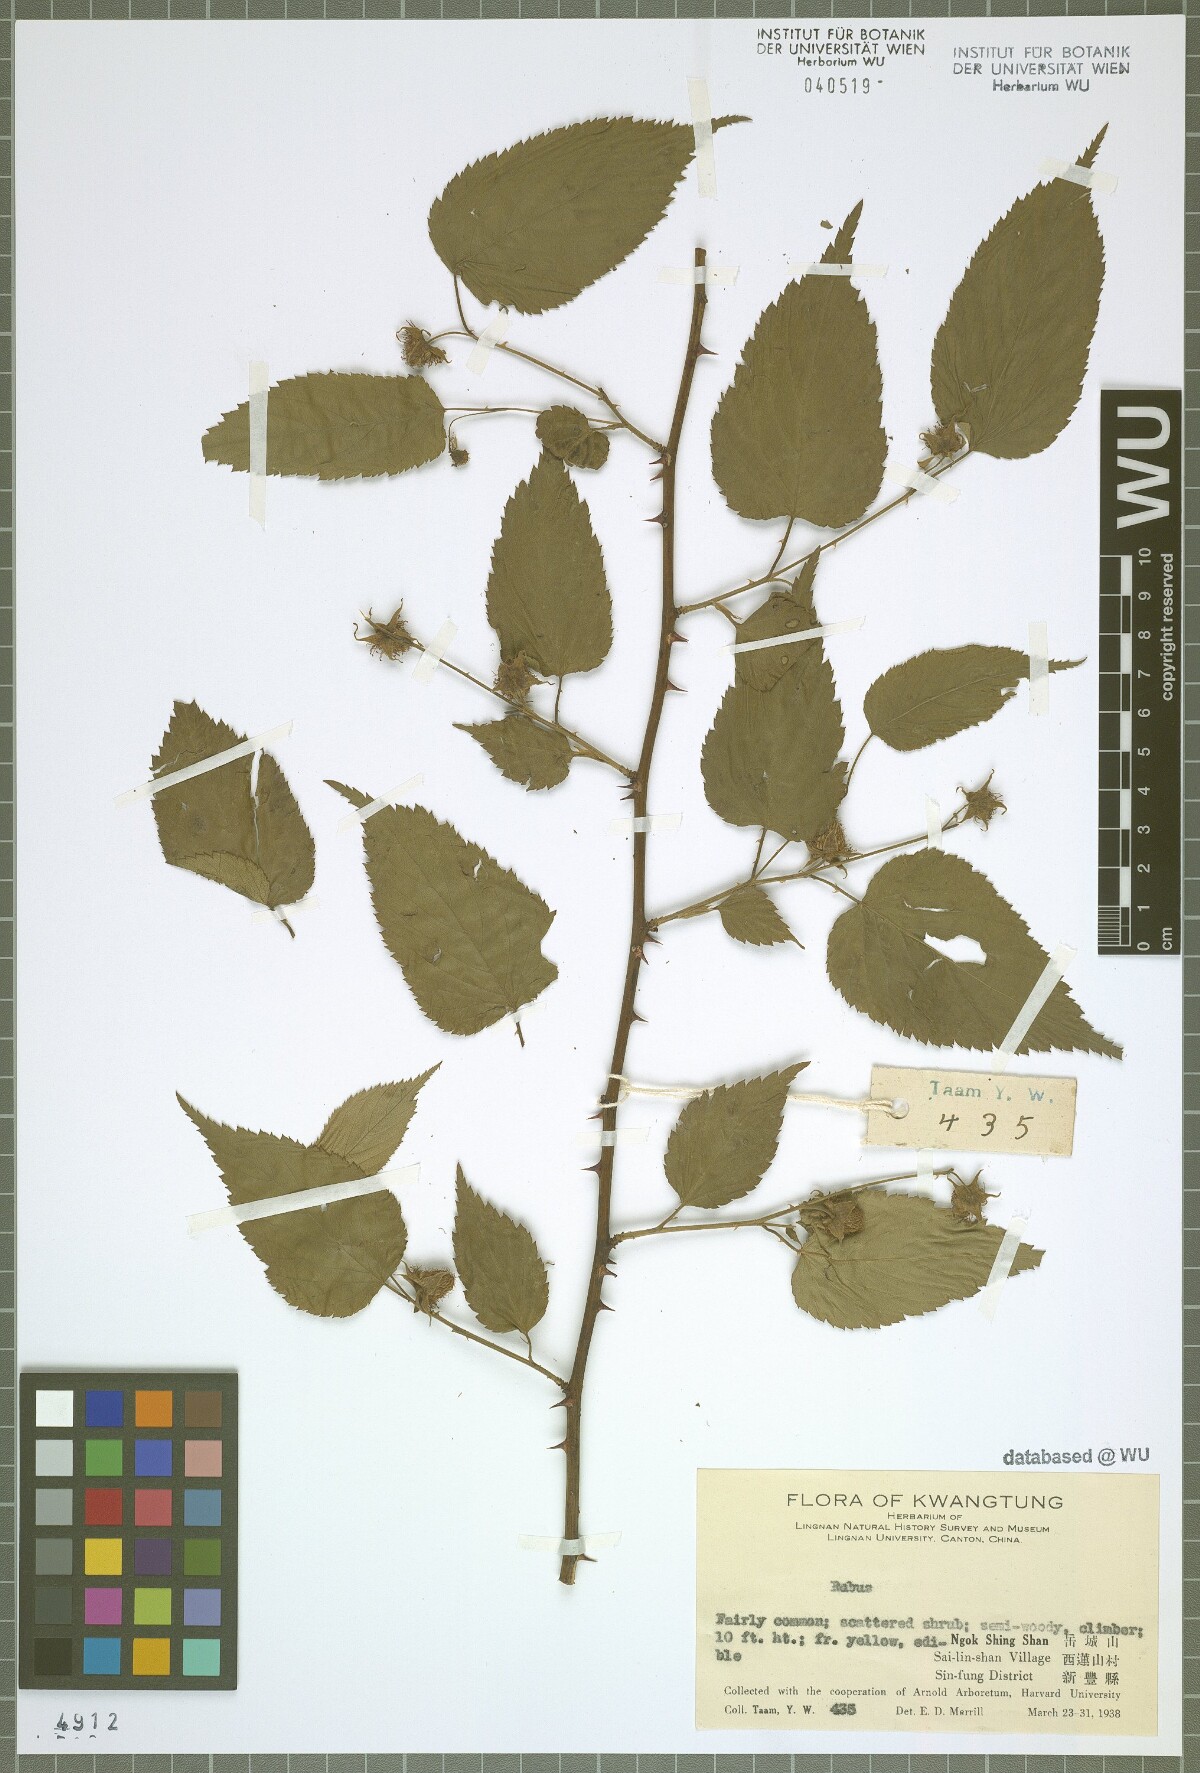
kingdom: Plantae
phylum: Tracheophyta
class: Magnoliopsida
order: Rosales
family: Rosaceae
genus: Rubus
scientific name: Rubus
